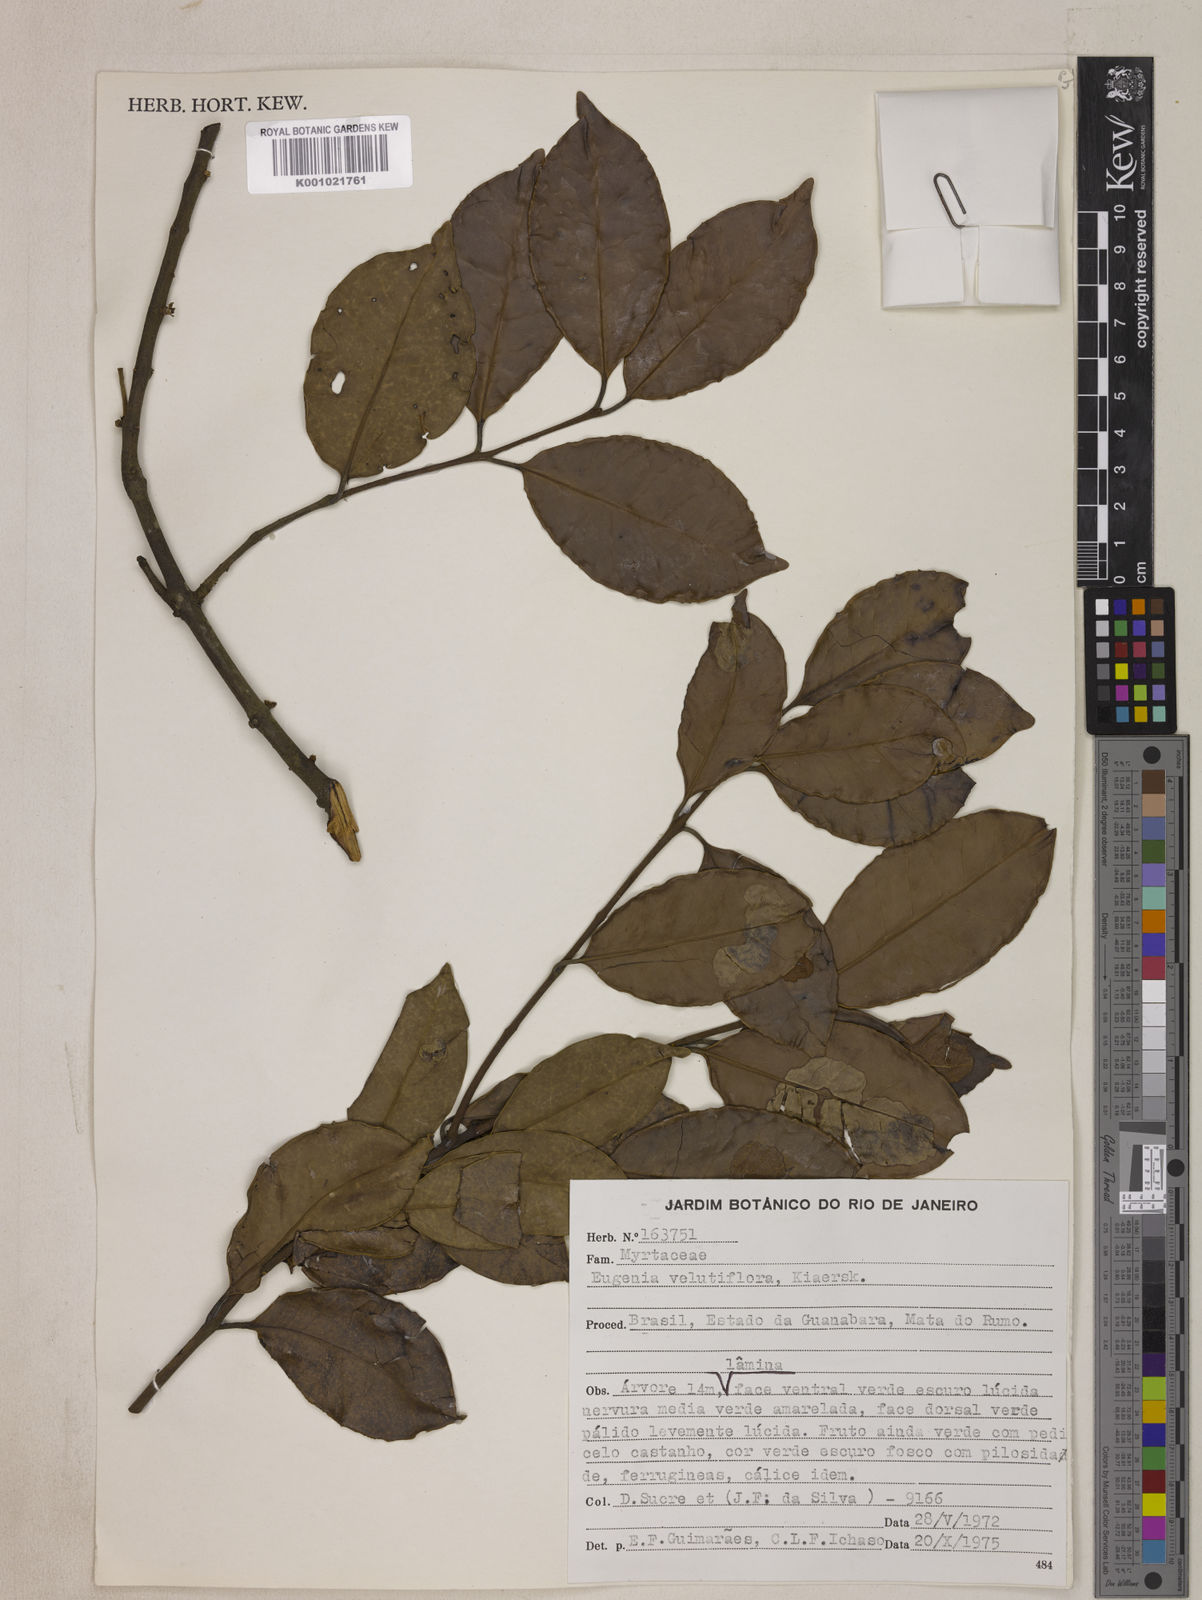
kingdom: Plantae
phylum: Tracheophyta
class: Magnoliopsida
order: Myrtales
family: Myrtaceae
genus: Eugenia
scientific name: Eugenia bahiensis
